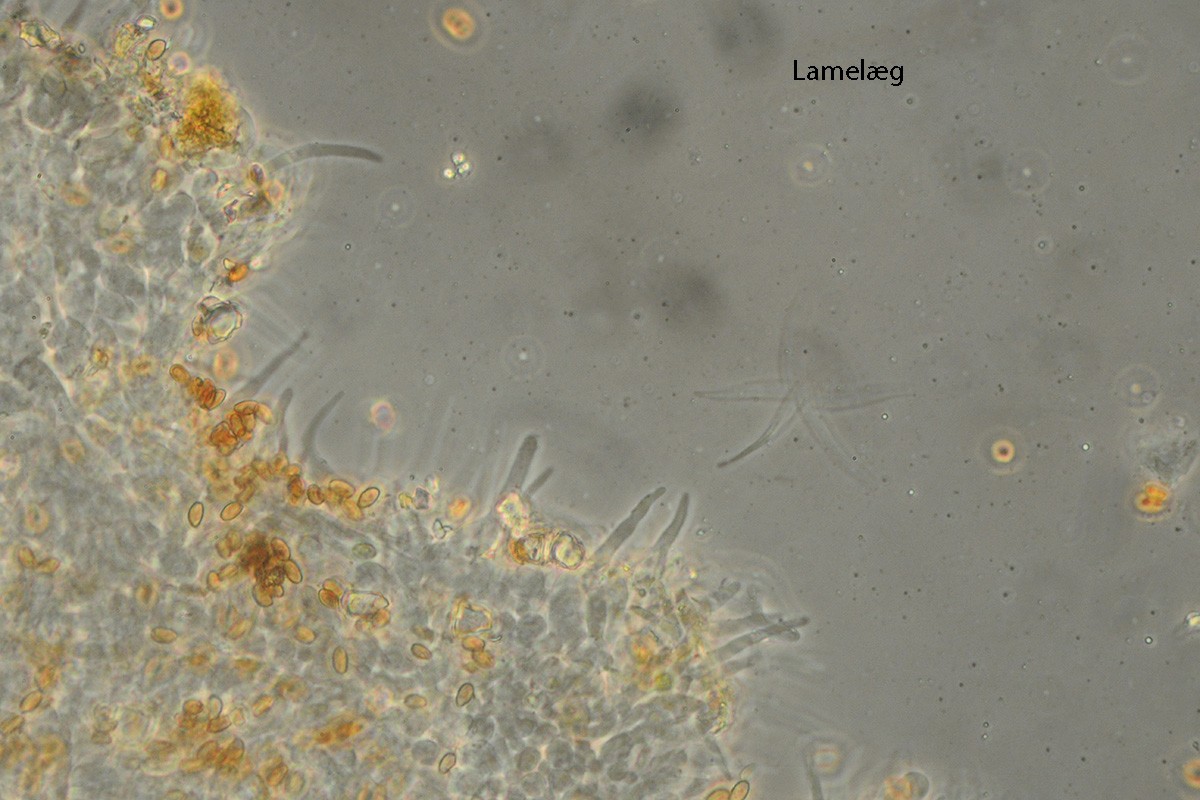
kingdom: Fungi
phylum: Basidiomycota
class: Agaricomycetes
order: Agaricales
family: Bolbitiaceae
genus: Conocybe
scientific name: Conocybe mairei
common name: spinkel dansehat
